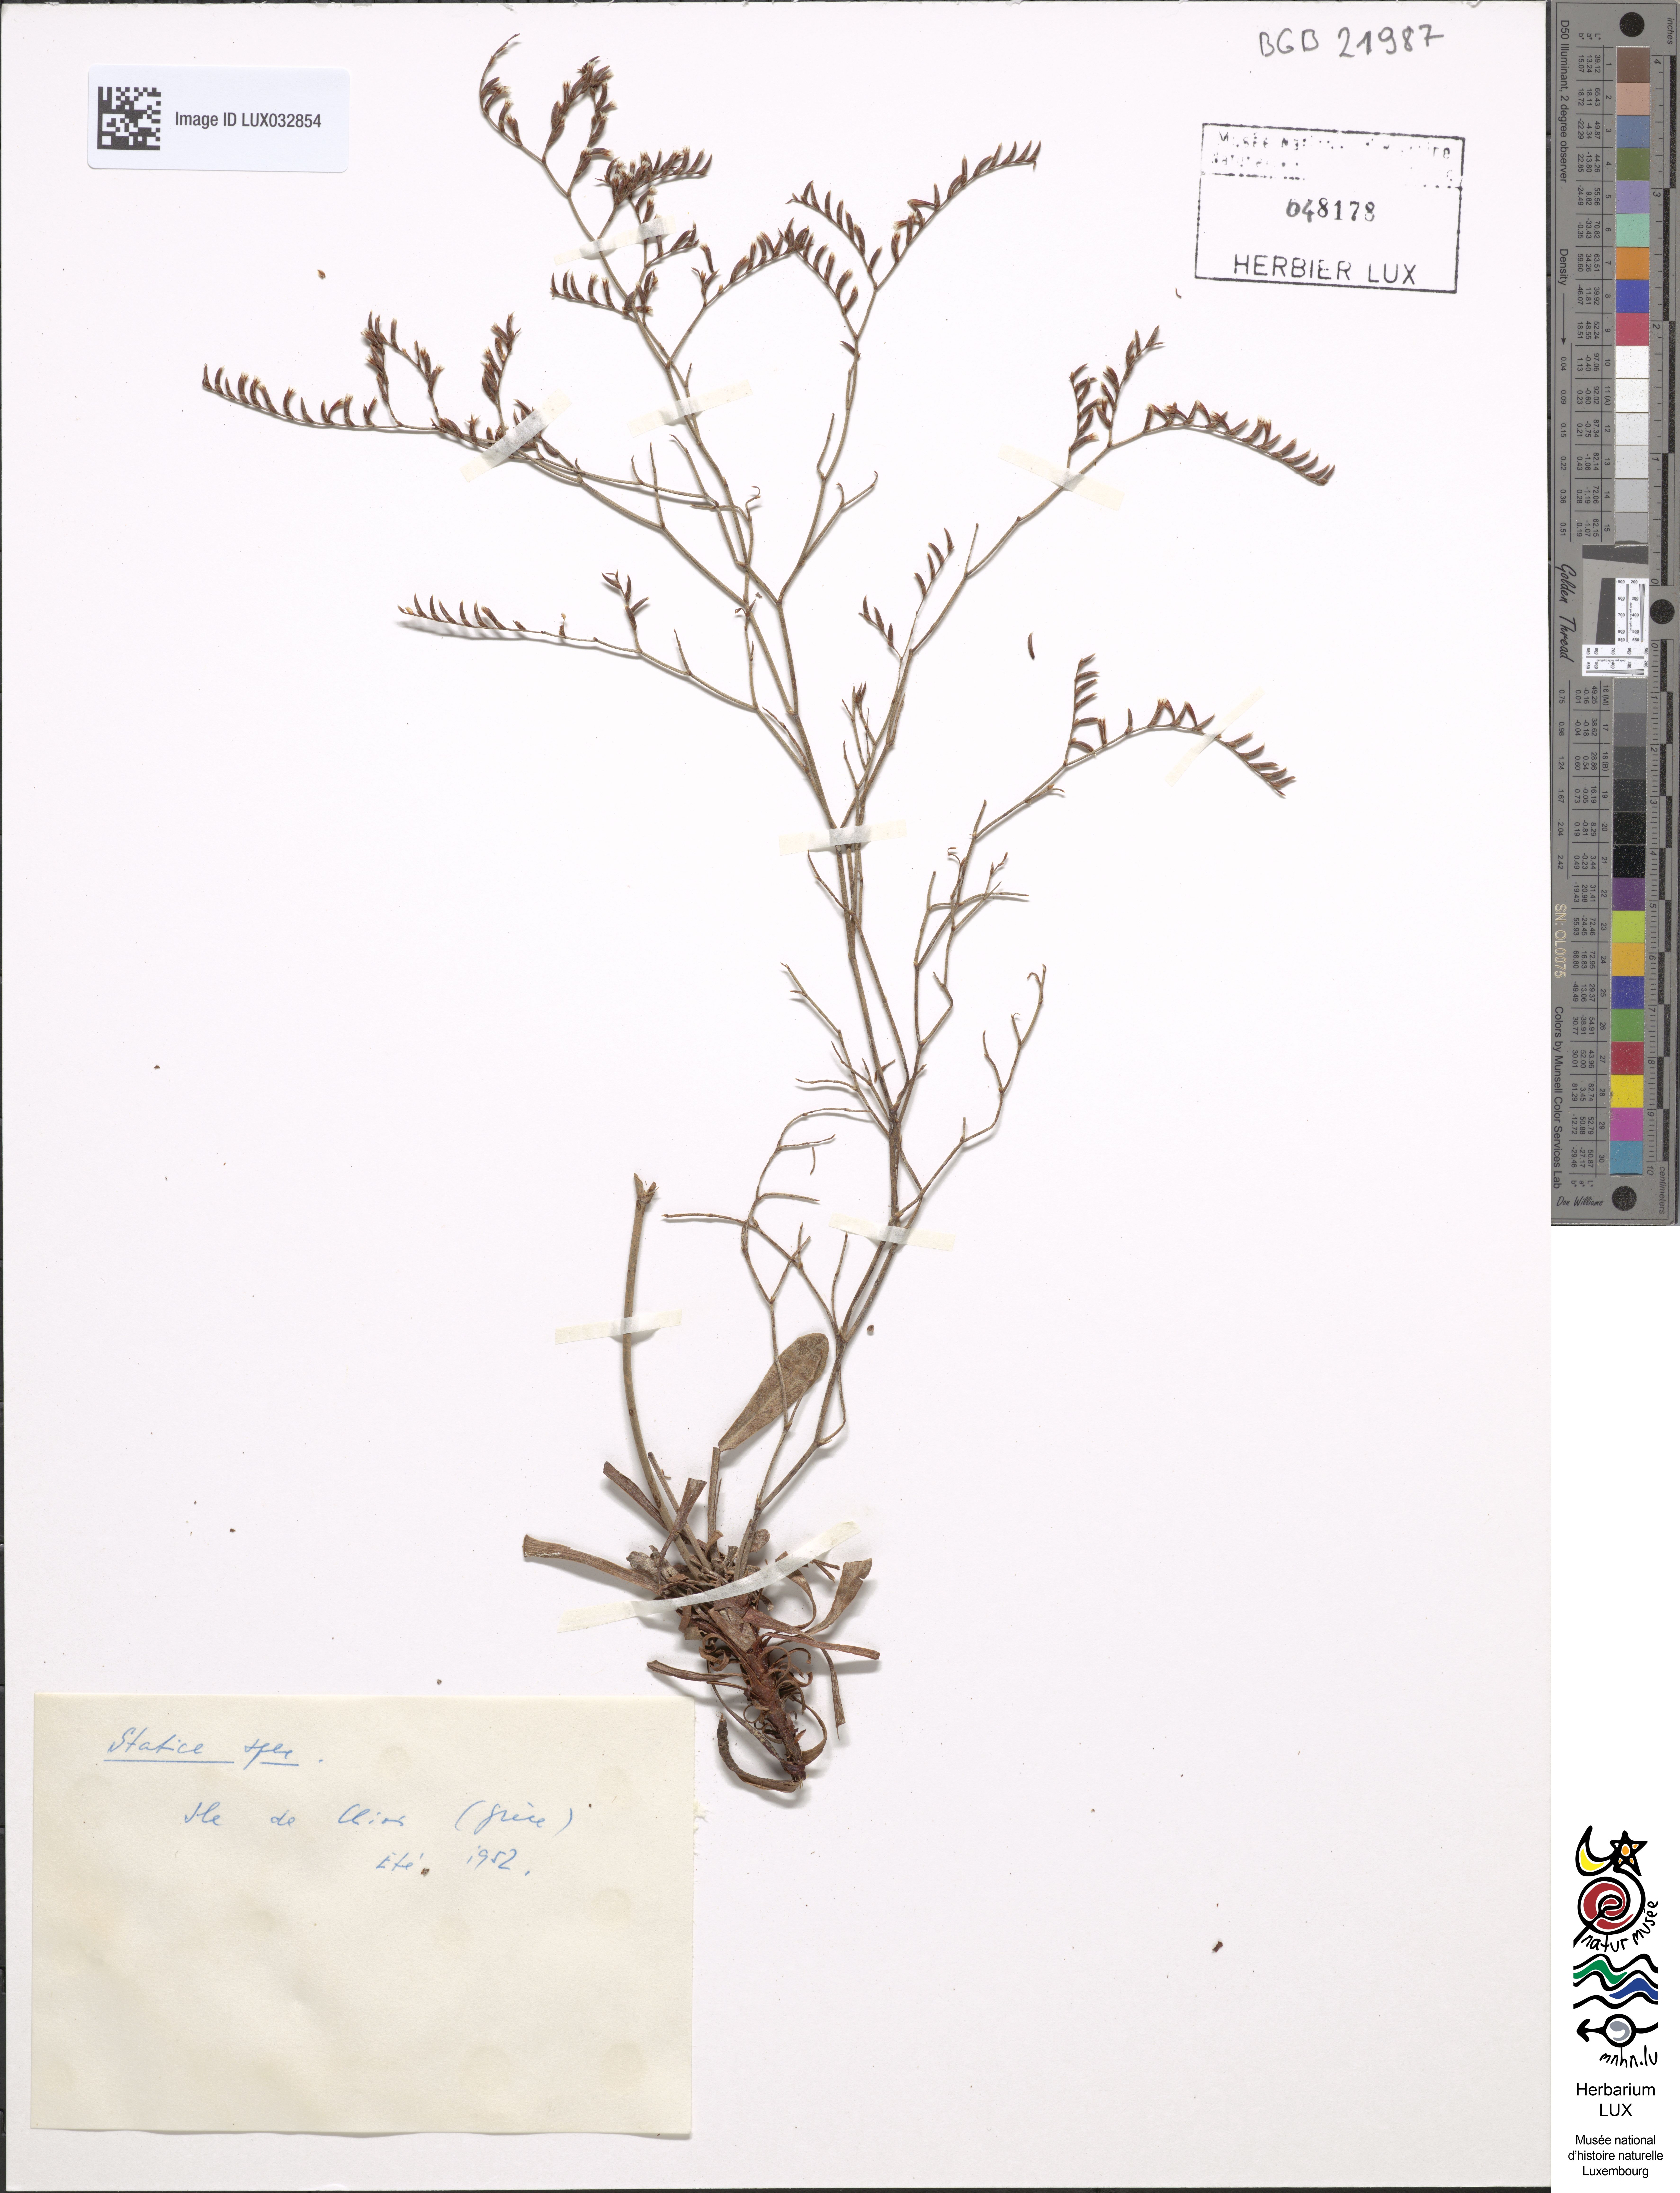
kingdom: Plantae
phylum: Tracheophyta
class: Magnoliopsida
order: Caryophyllales
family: Plumbaginaceae
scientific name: Plumbaginaceae
